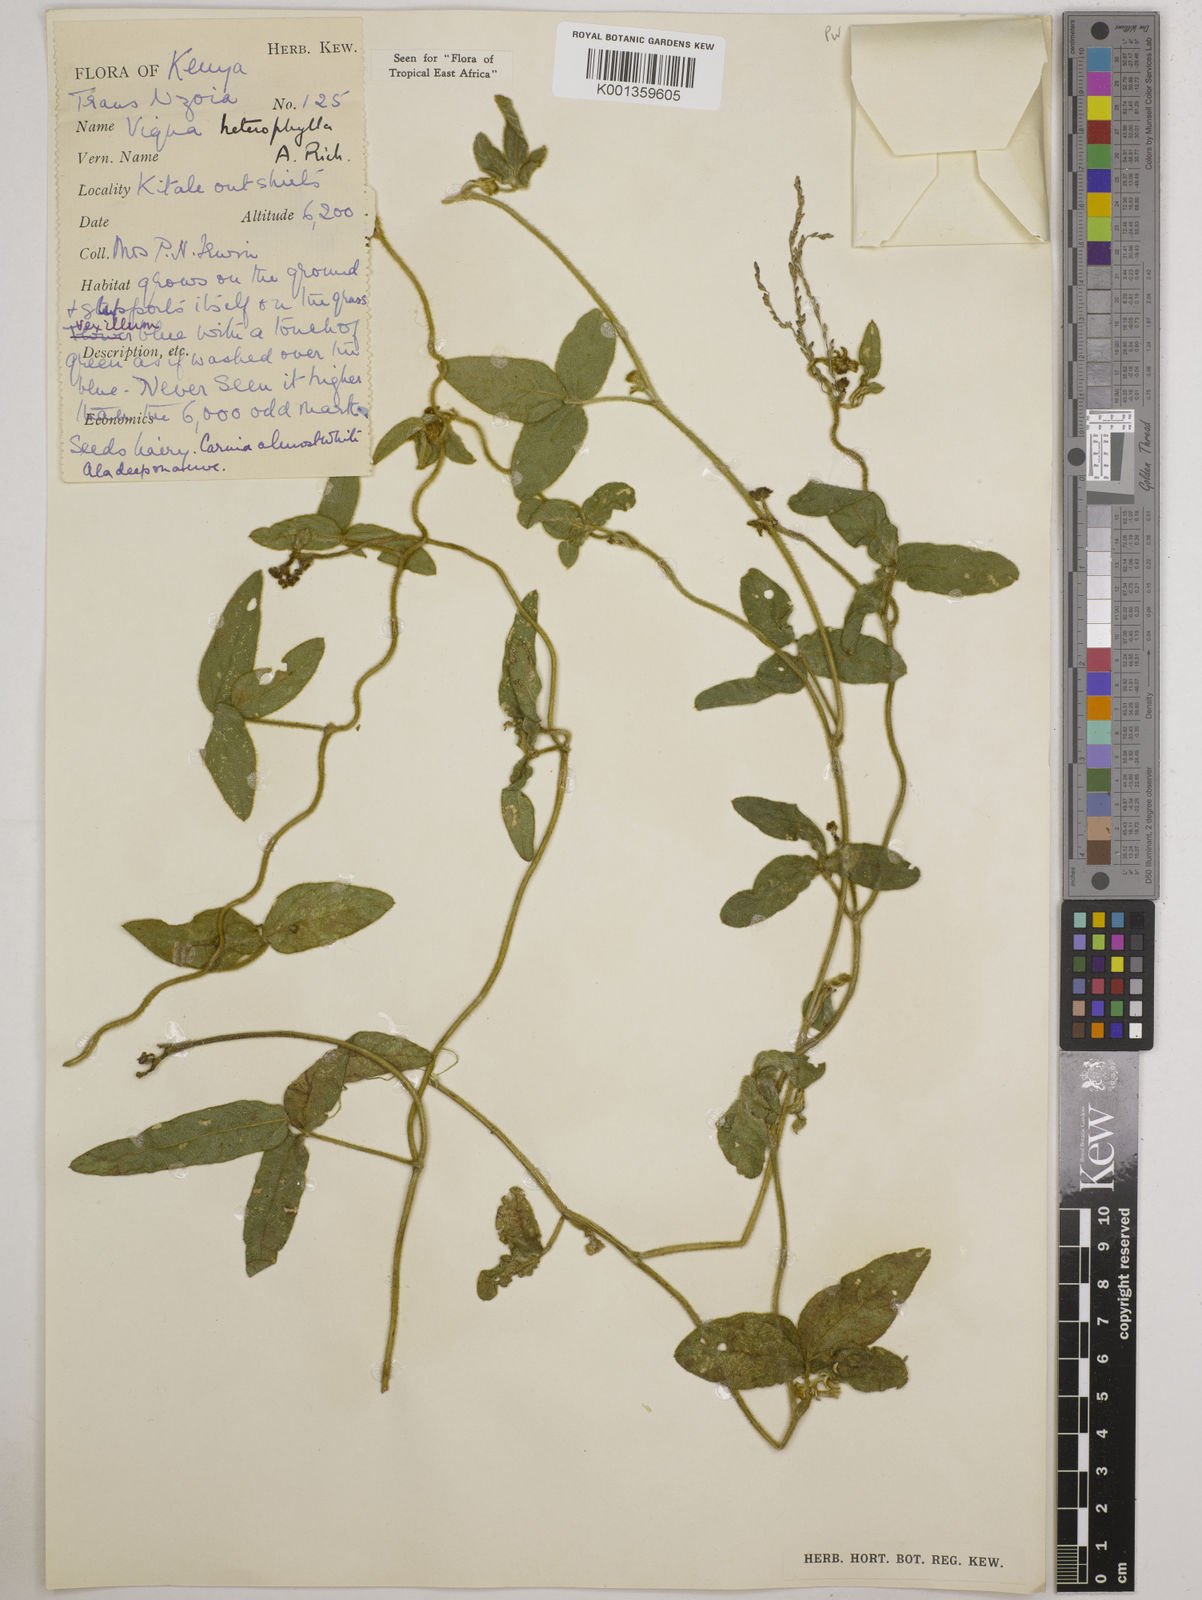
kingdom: Plantae
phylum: Tracheophyta
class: Magnoliopsida
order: Fabales
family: Fabaceae
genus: Vigna
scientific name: Vigna heterophylla
